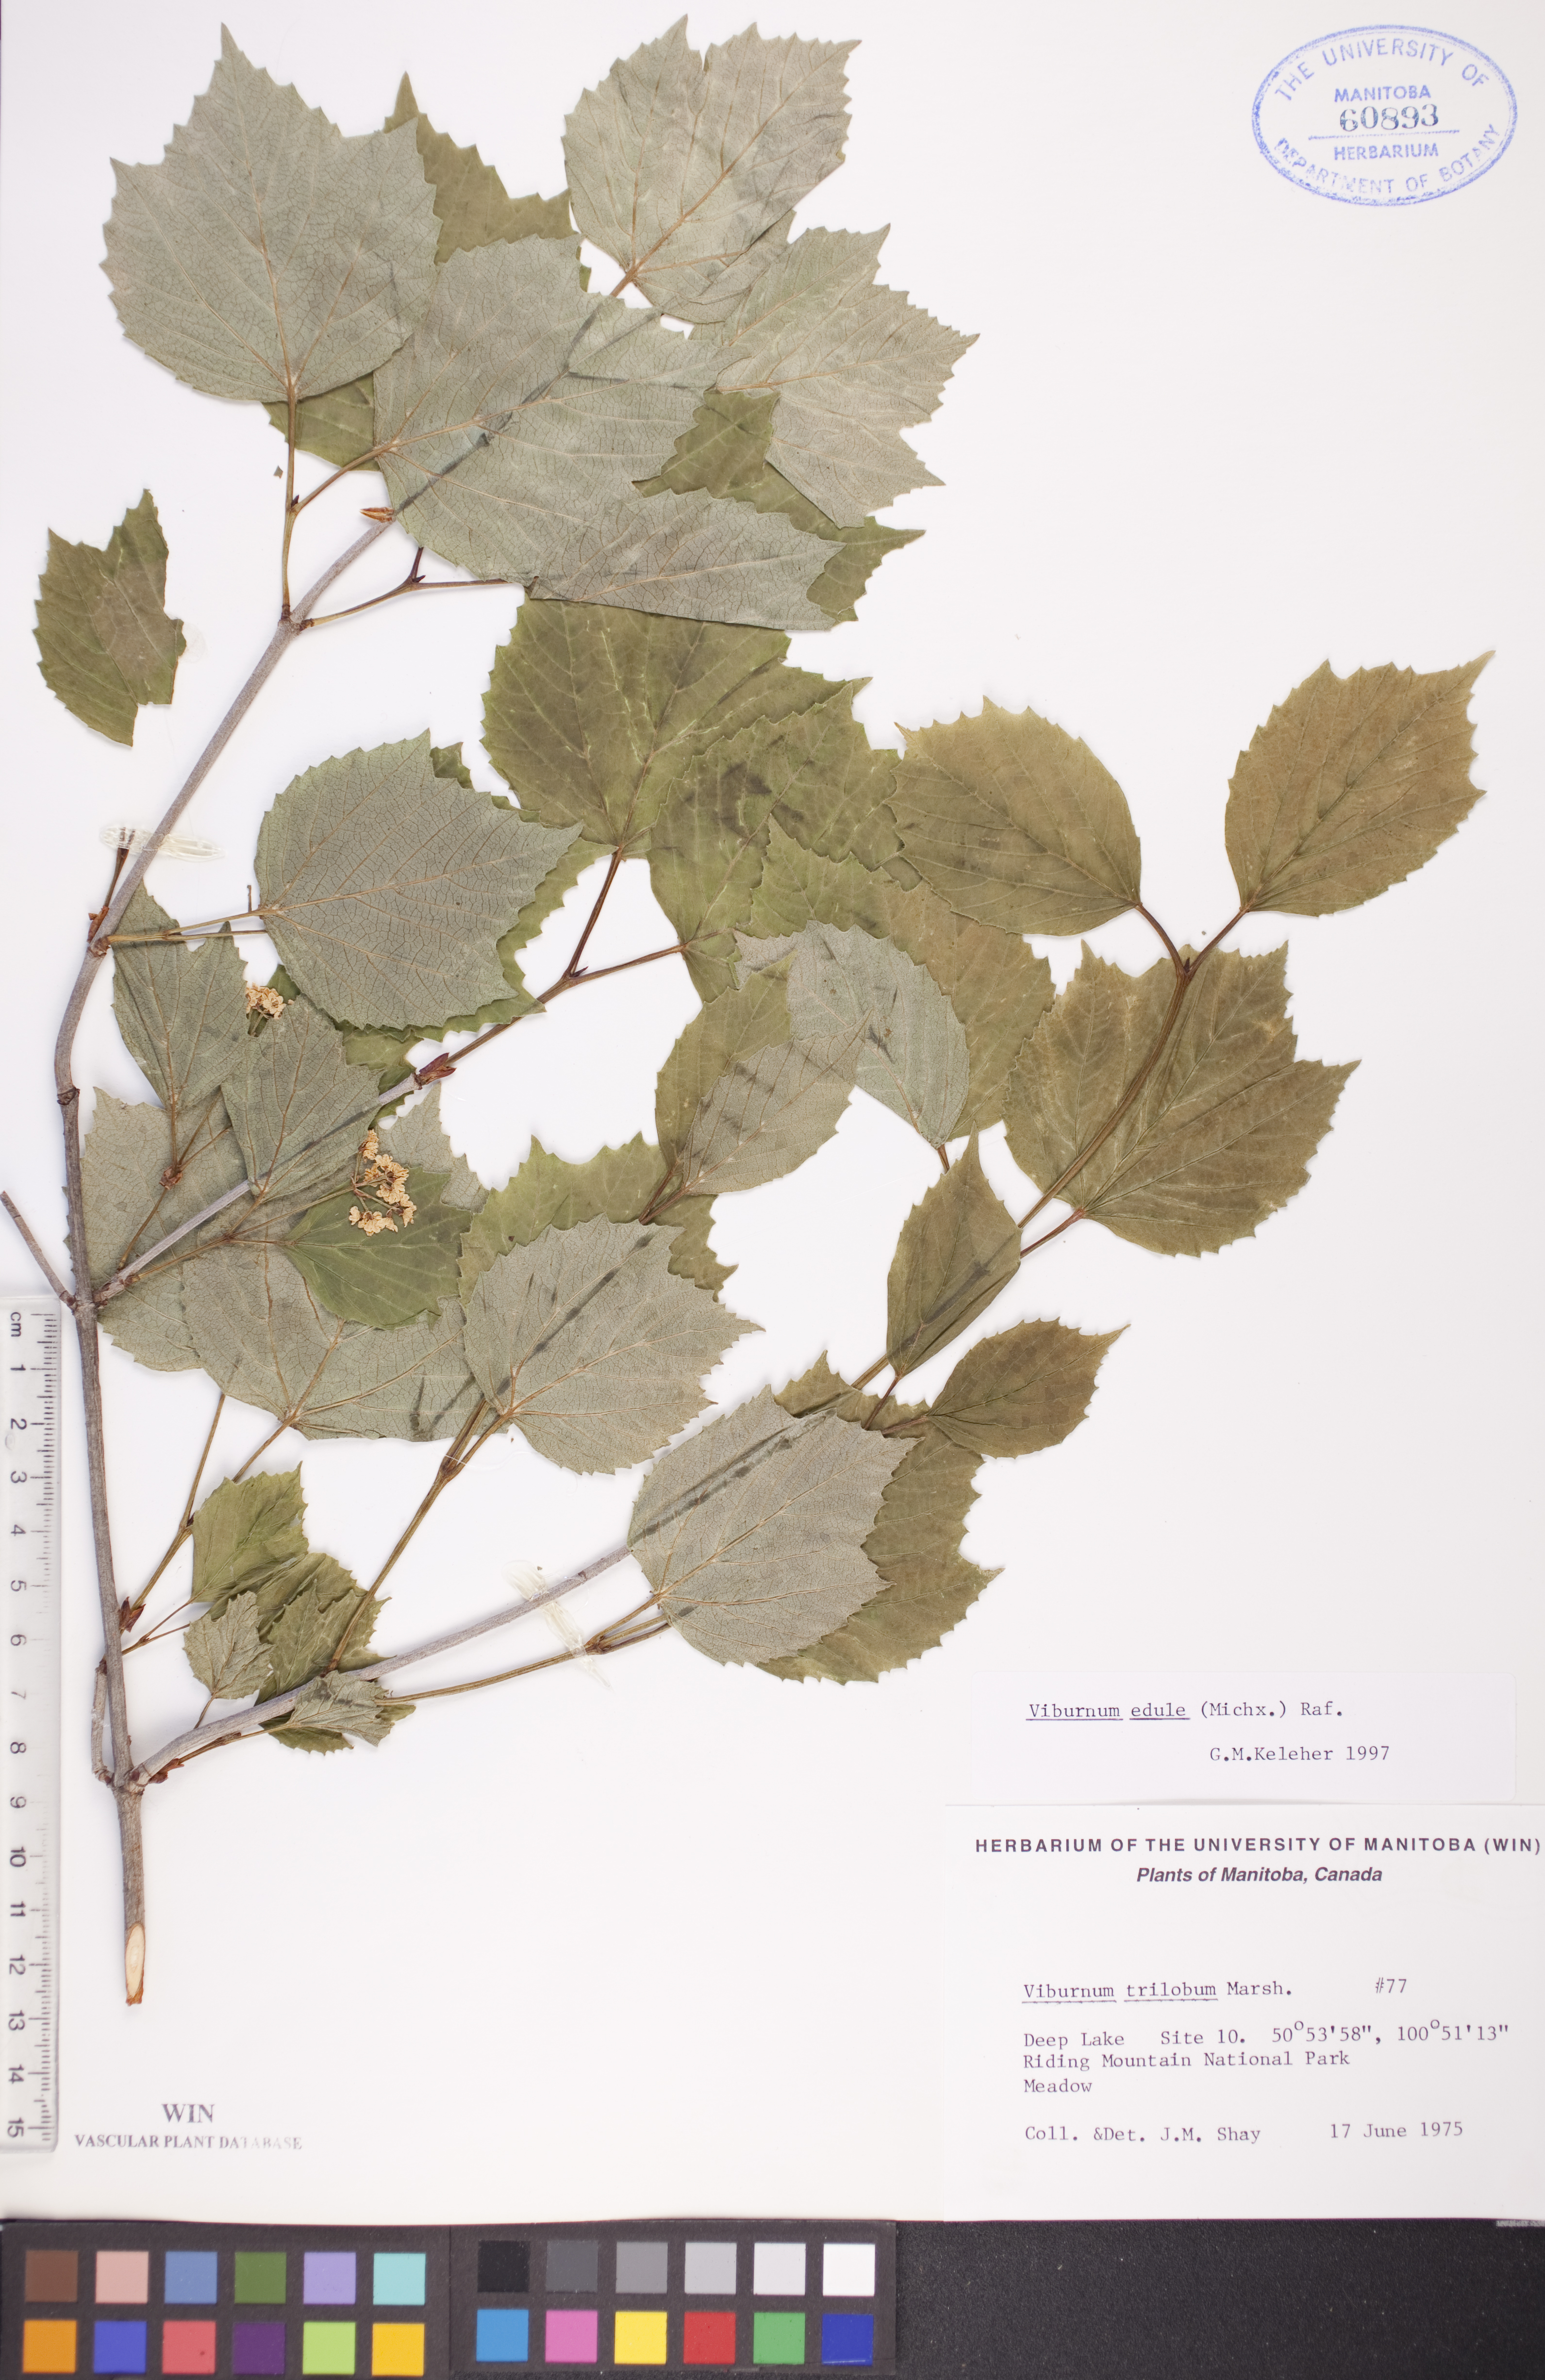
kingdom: Plantae
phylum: Tracheophyta
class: Magnoliopsida
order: Dipsacales
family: Viburnaceae
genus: Viburnum
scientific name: Viburnum edule
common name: Mooseberry
